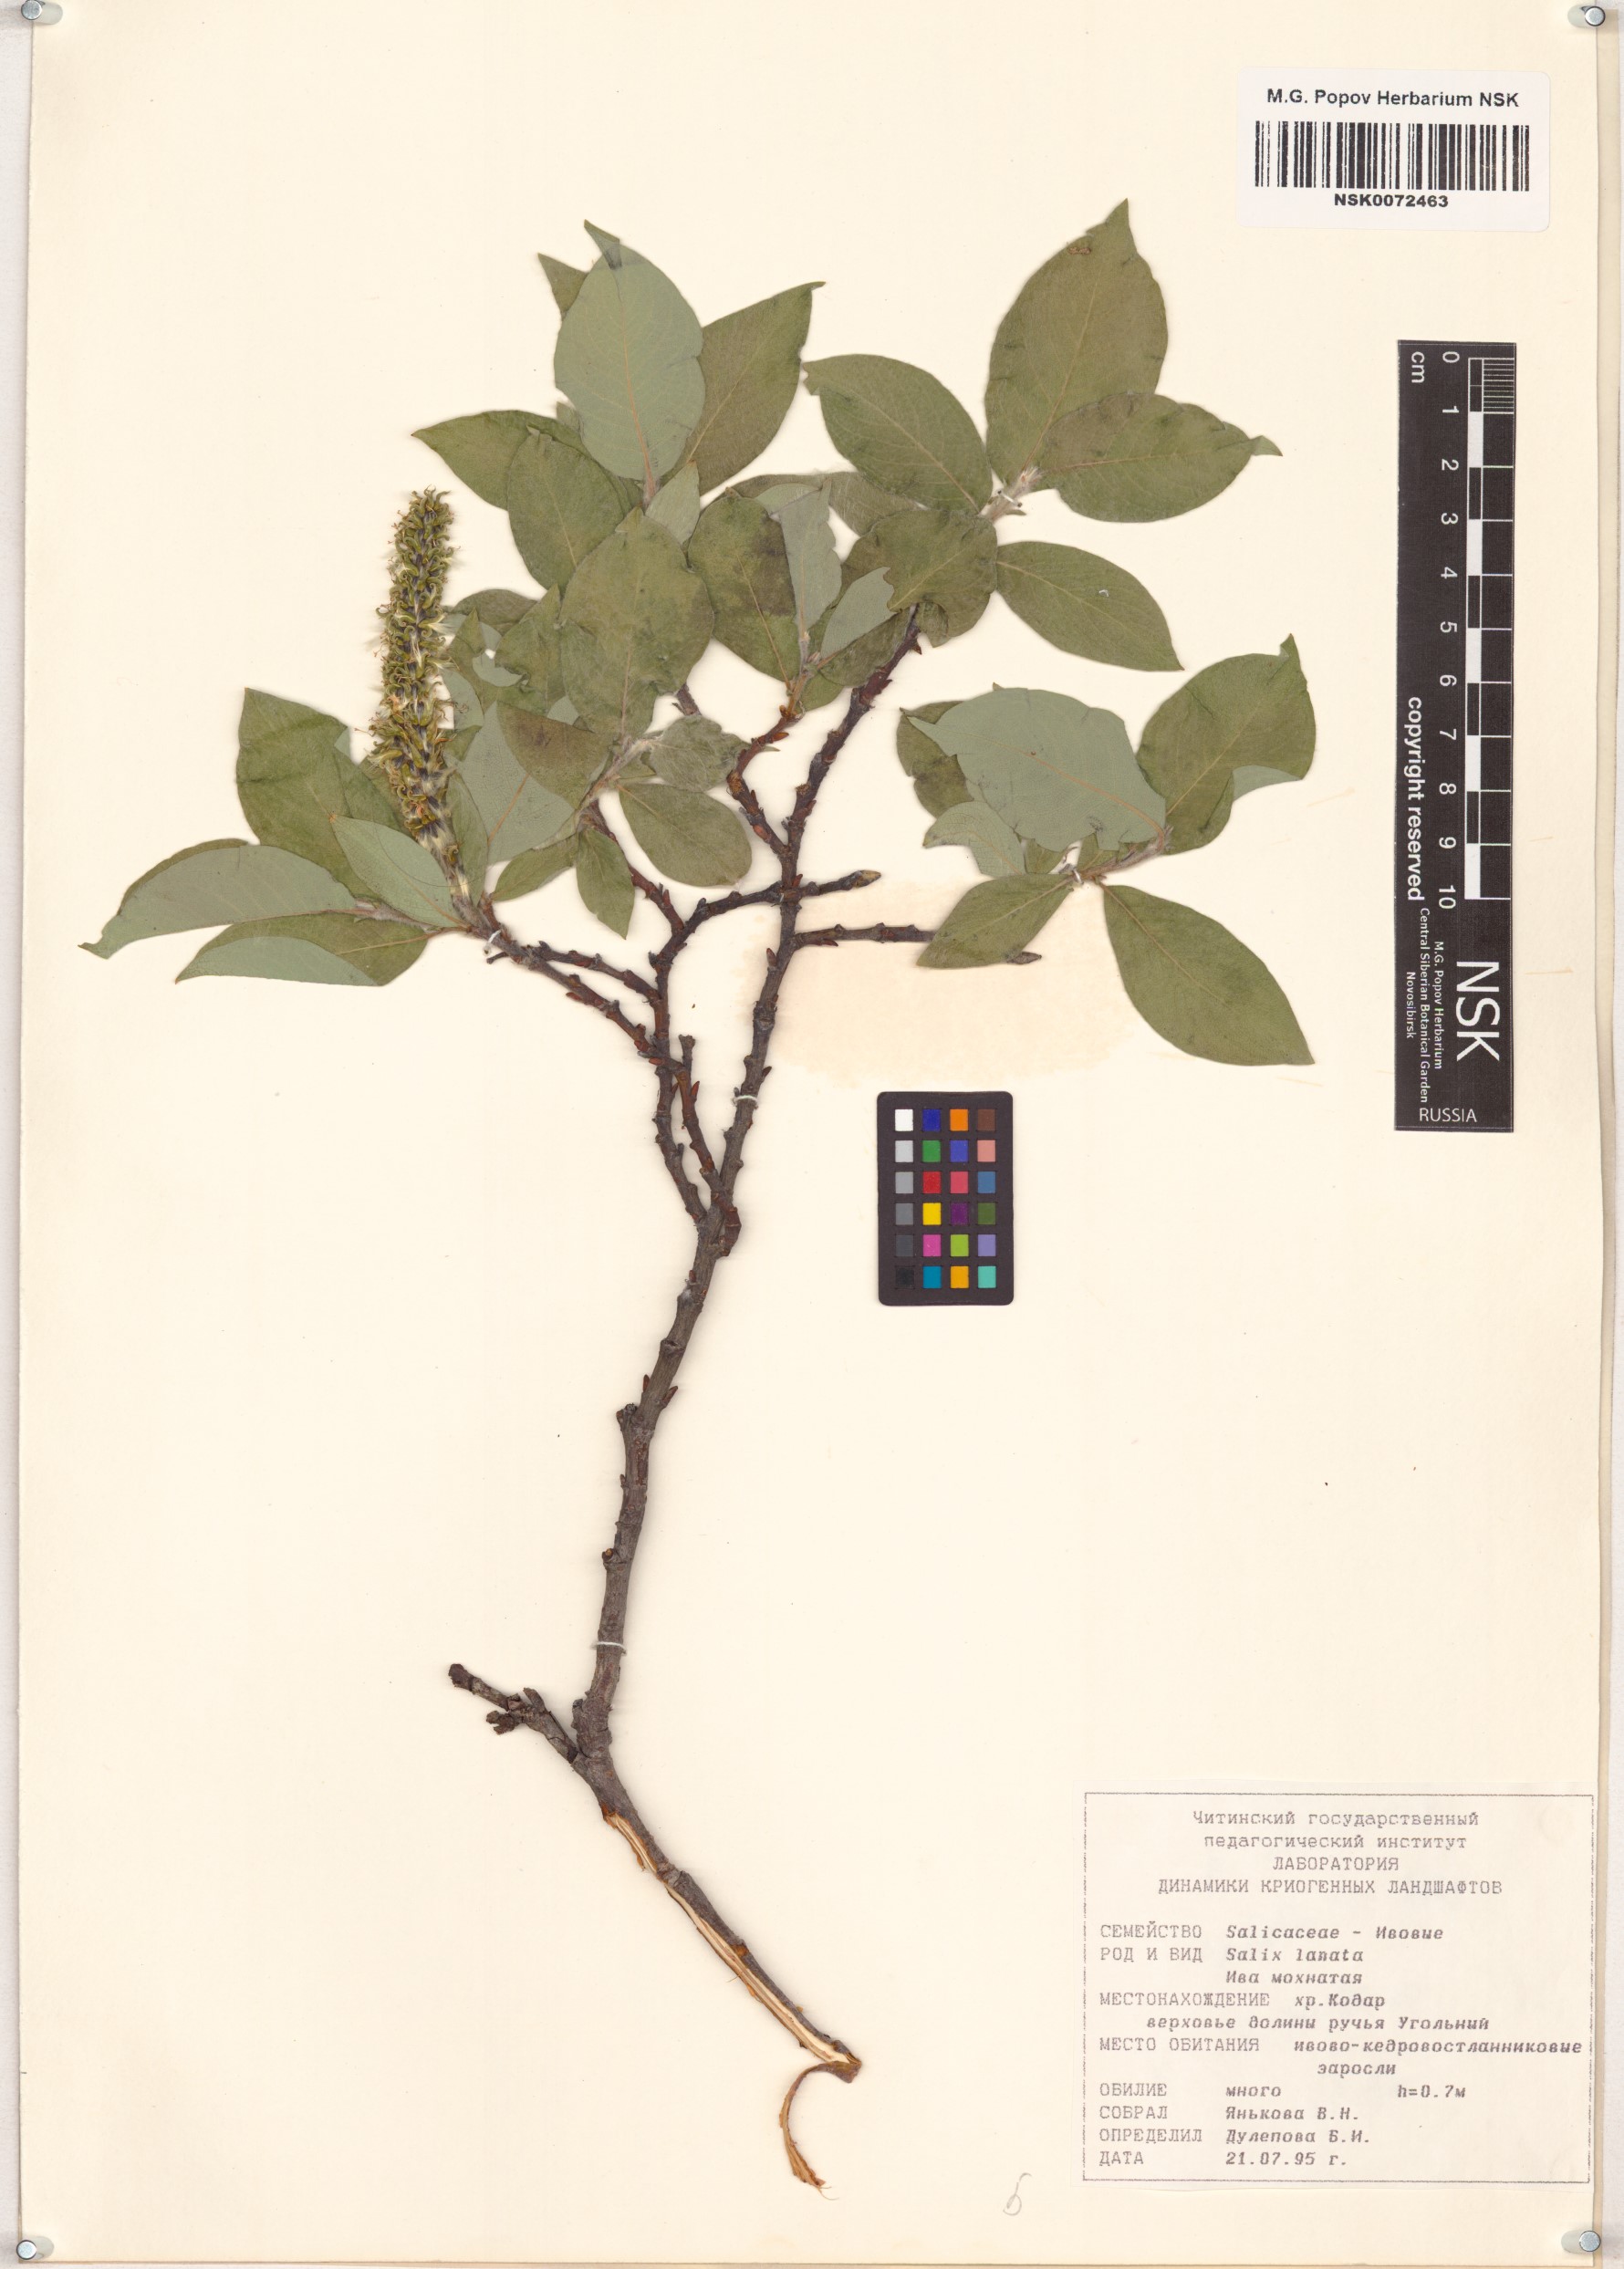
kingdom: Plantae
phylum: Tracheophyta
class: Magnoliopsida
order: Malpighiales
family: Salicaceae
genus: Salix
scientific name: Salix lanata
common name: Woolly willow
